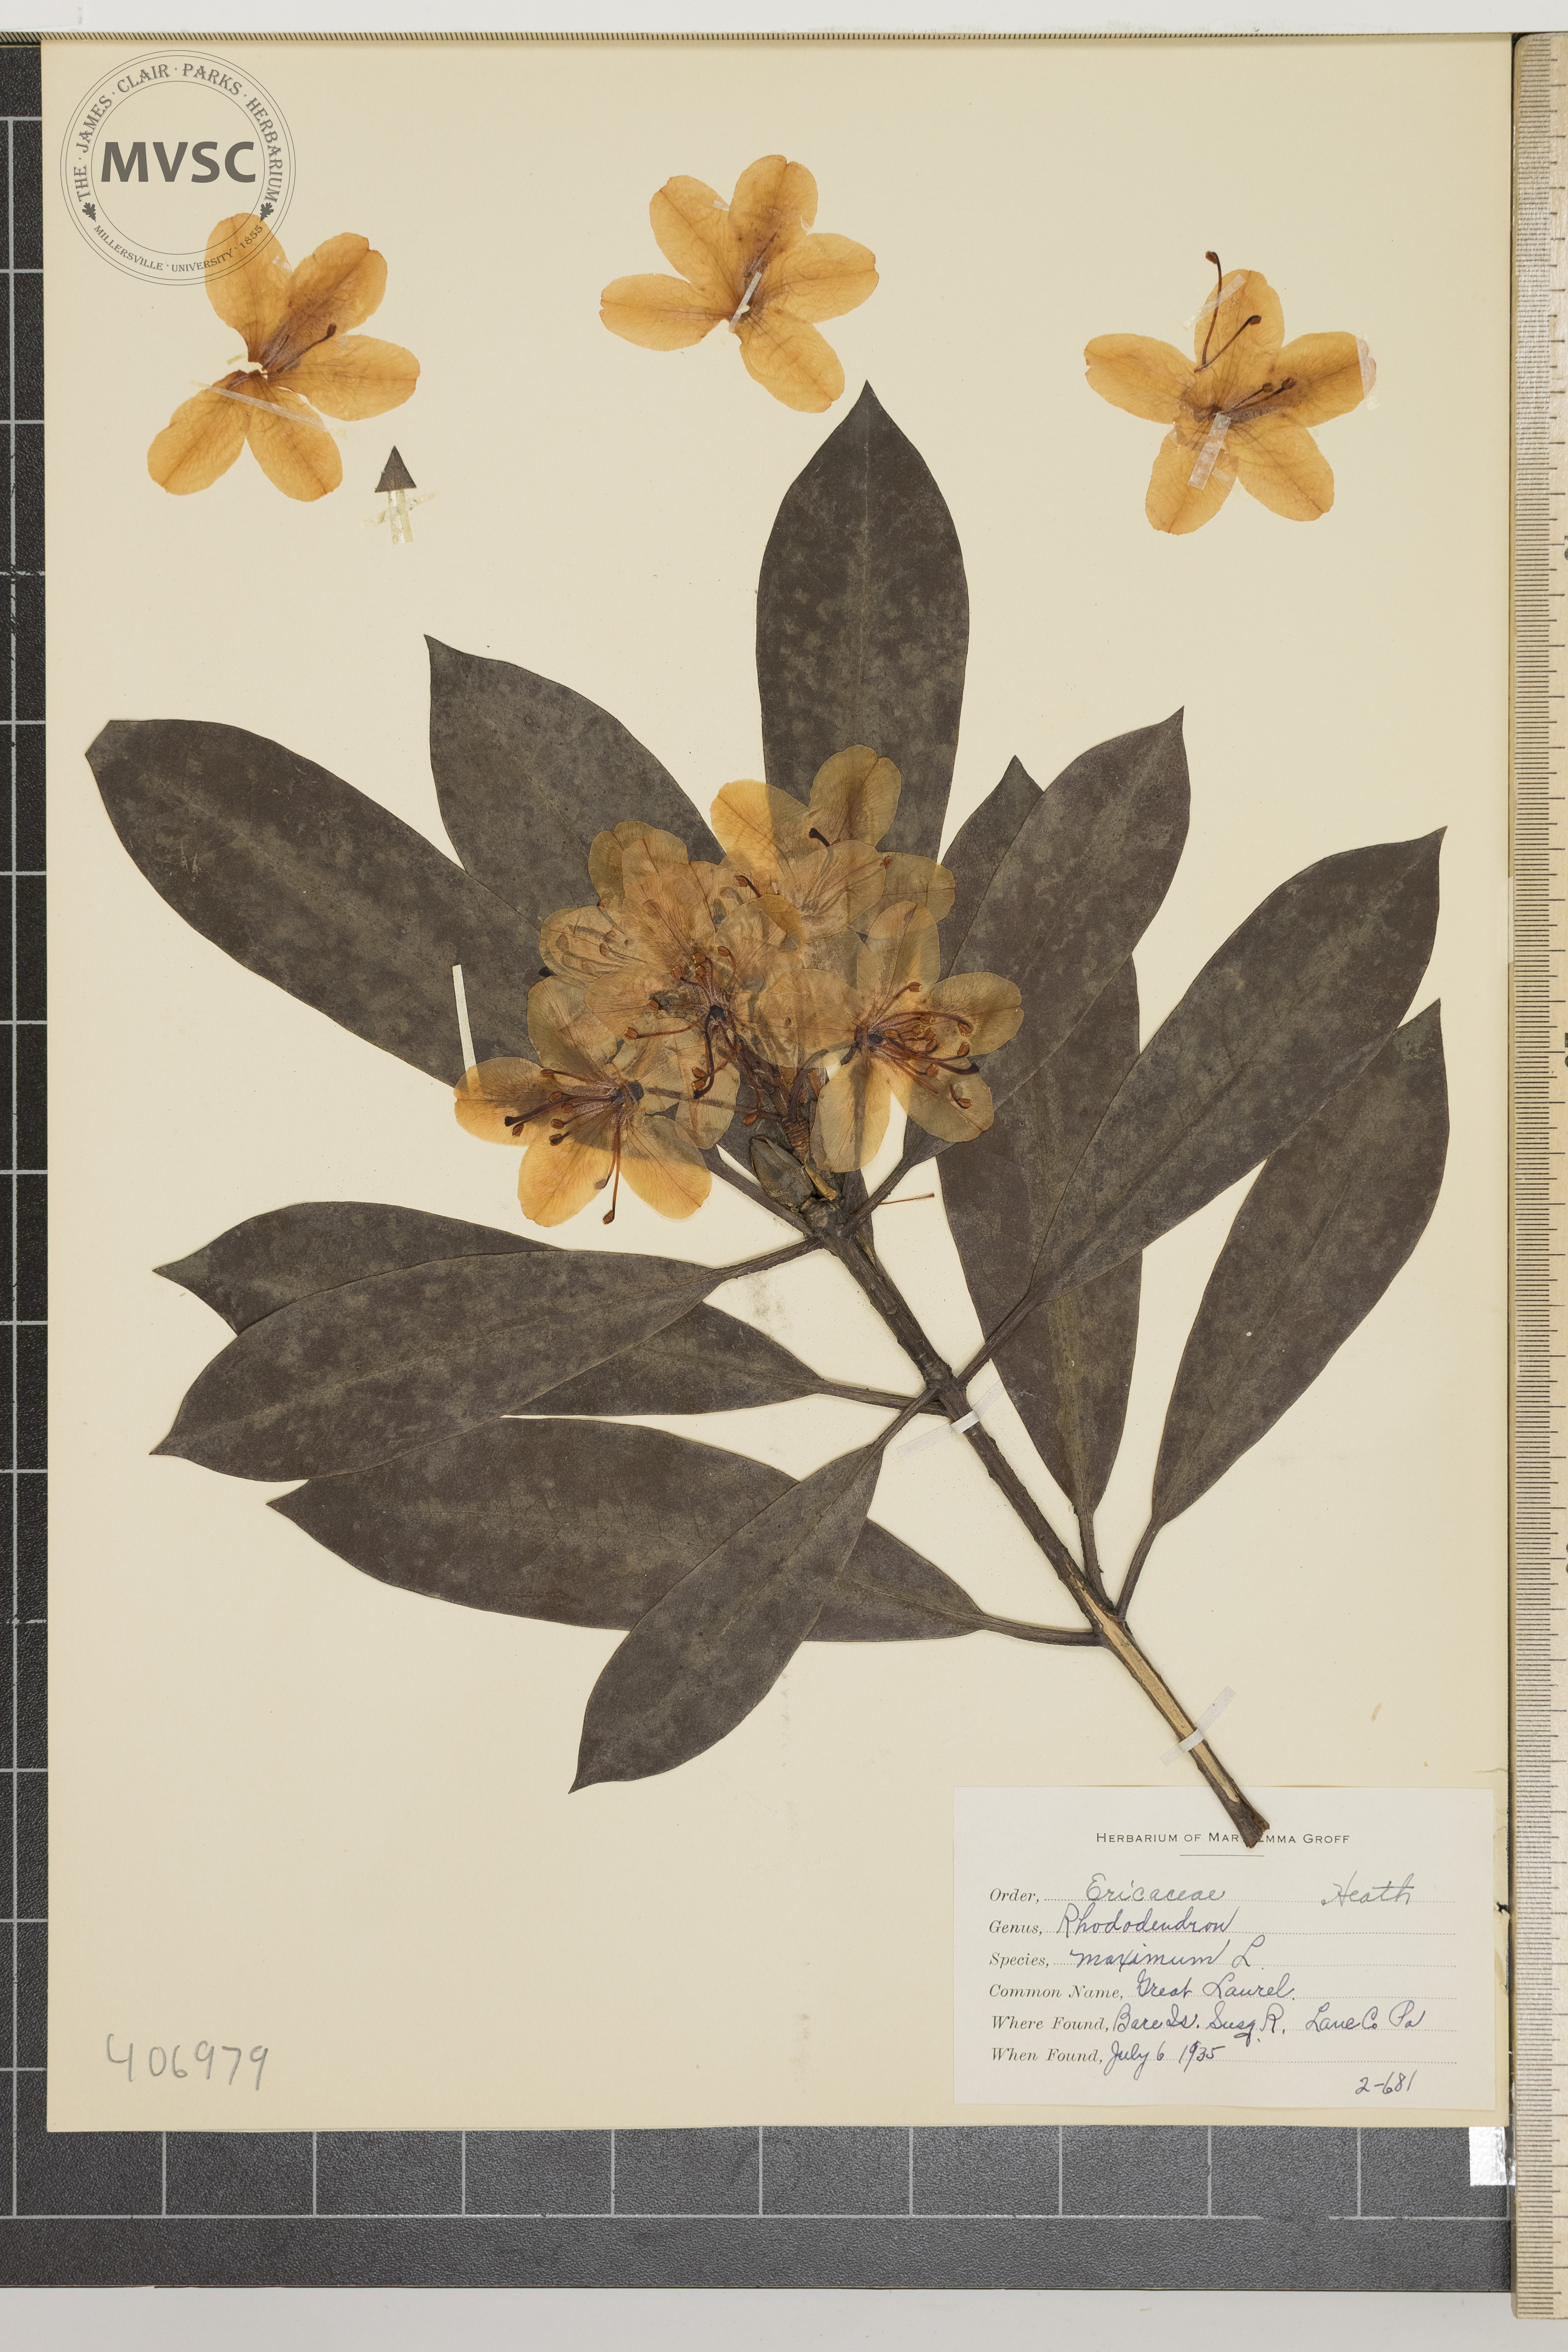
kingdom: Plantae
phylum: Tracheophyta
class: Magnoliopsida
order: Ericales
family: Ericaceae
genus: Rhododendron
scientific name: Rhododendron maximum
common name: Great Laurel
